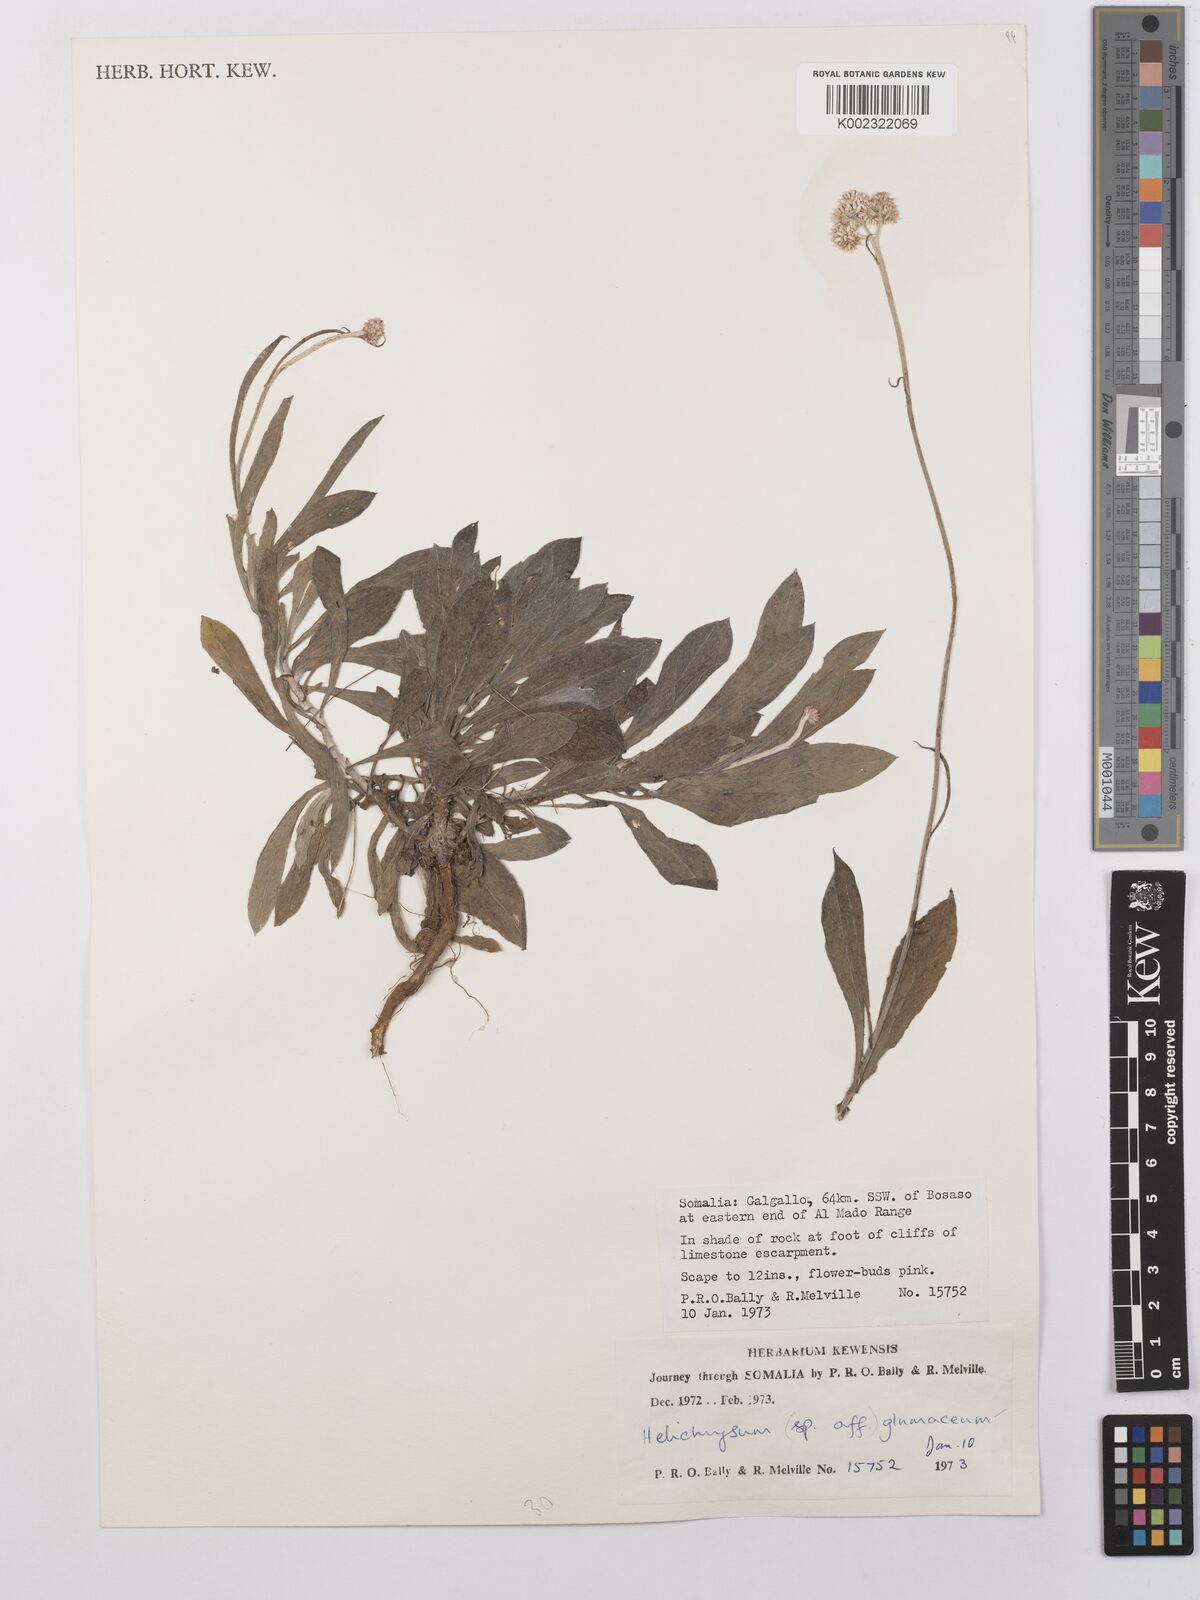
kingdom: Plantae
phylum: Tracheophyta
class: Magnoliopsida
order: Asterales
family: Asteraceae
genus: Helichrysum
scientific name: Helichrysum glumaceum
